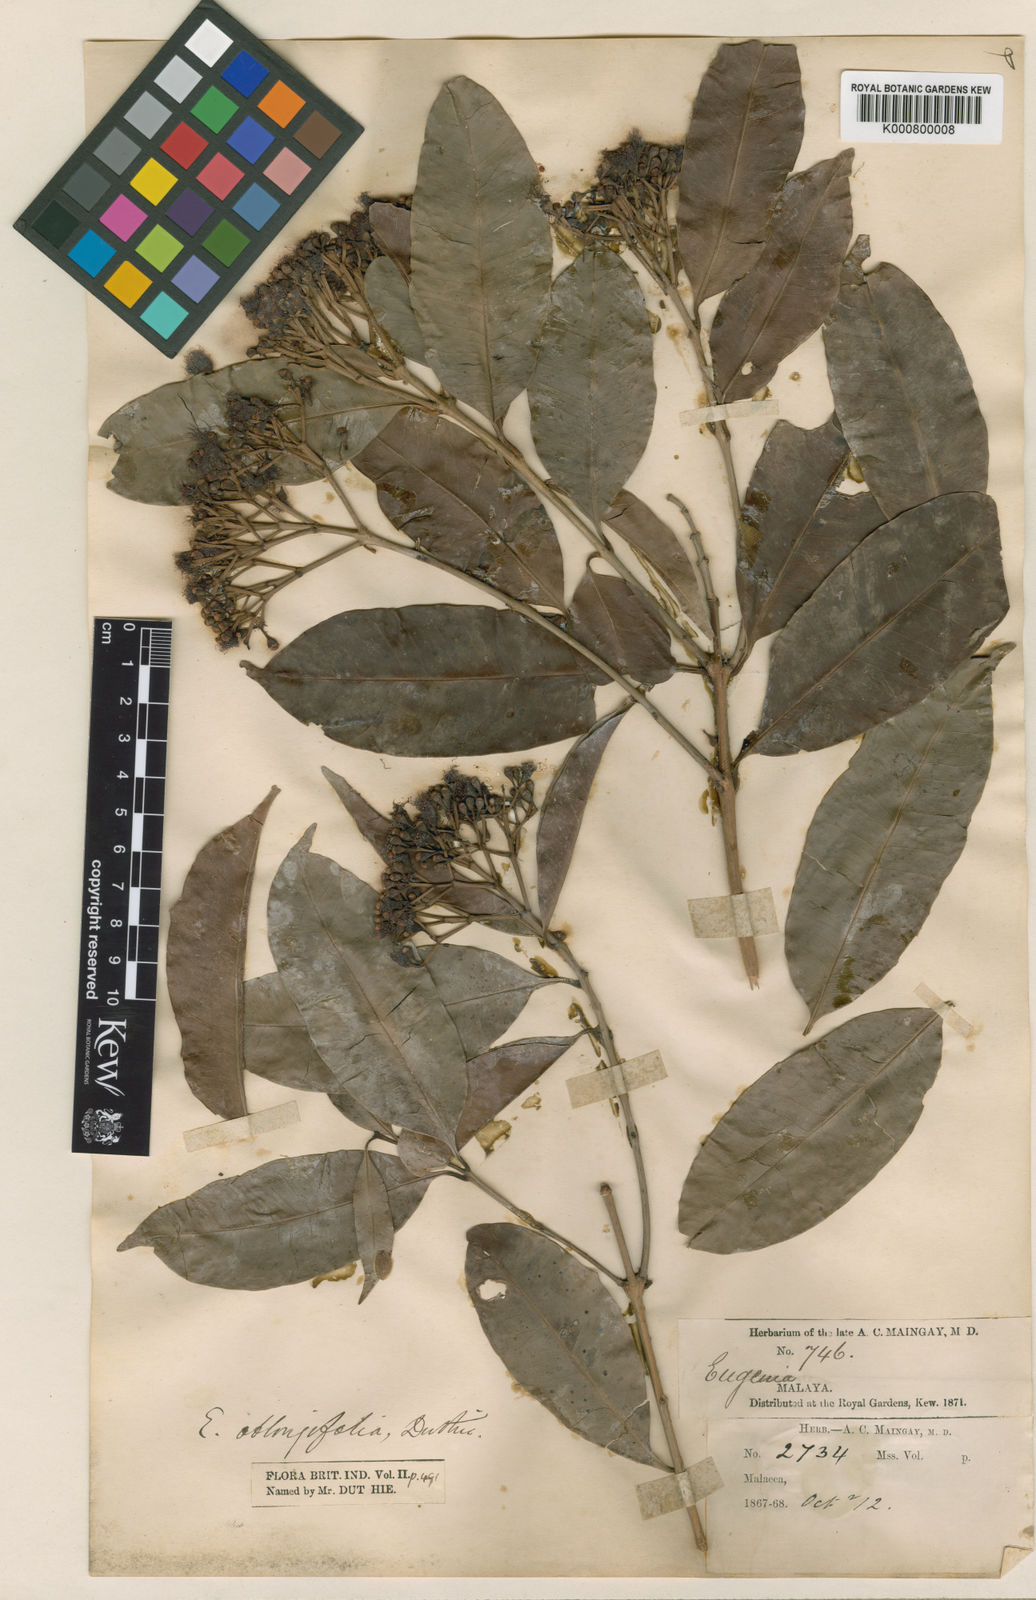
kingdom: Plantae
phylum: Tracheophyta
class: Magnoliopsida
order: Myrtales
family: Myrtaceae
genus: Syzygium
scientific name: Syzygium oblongifolium
